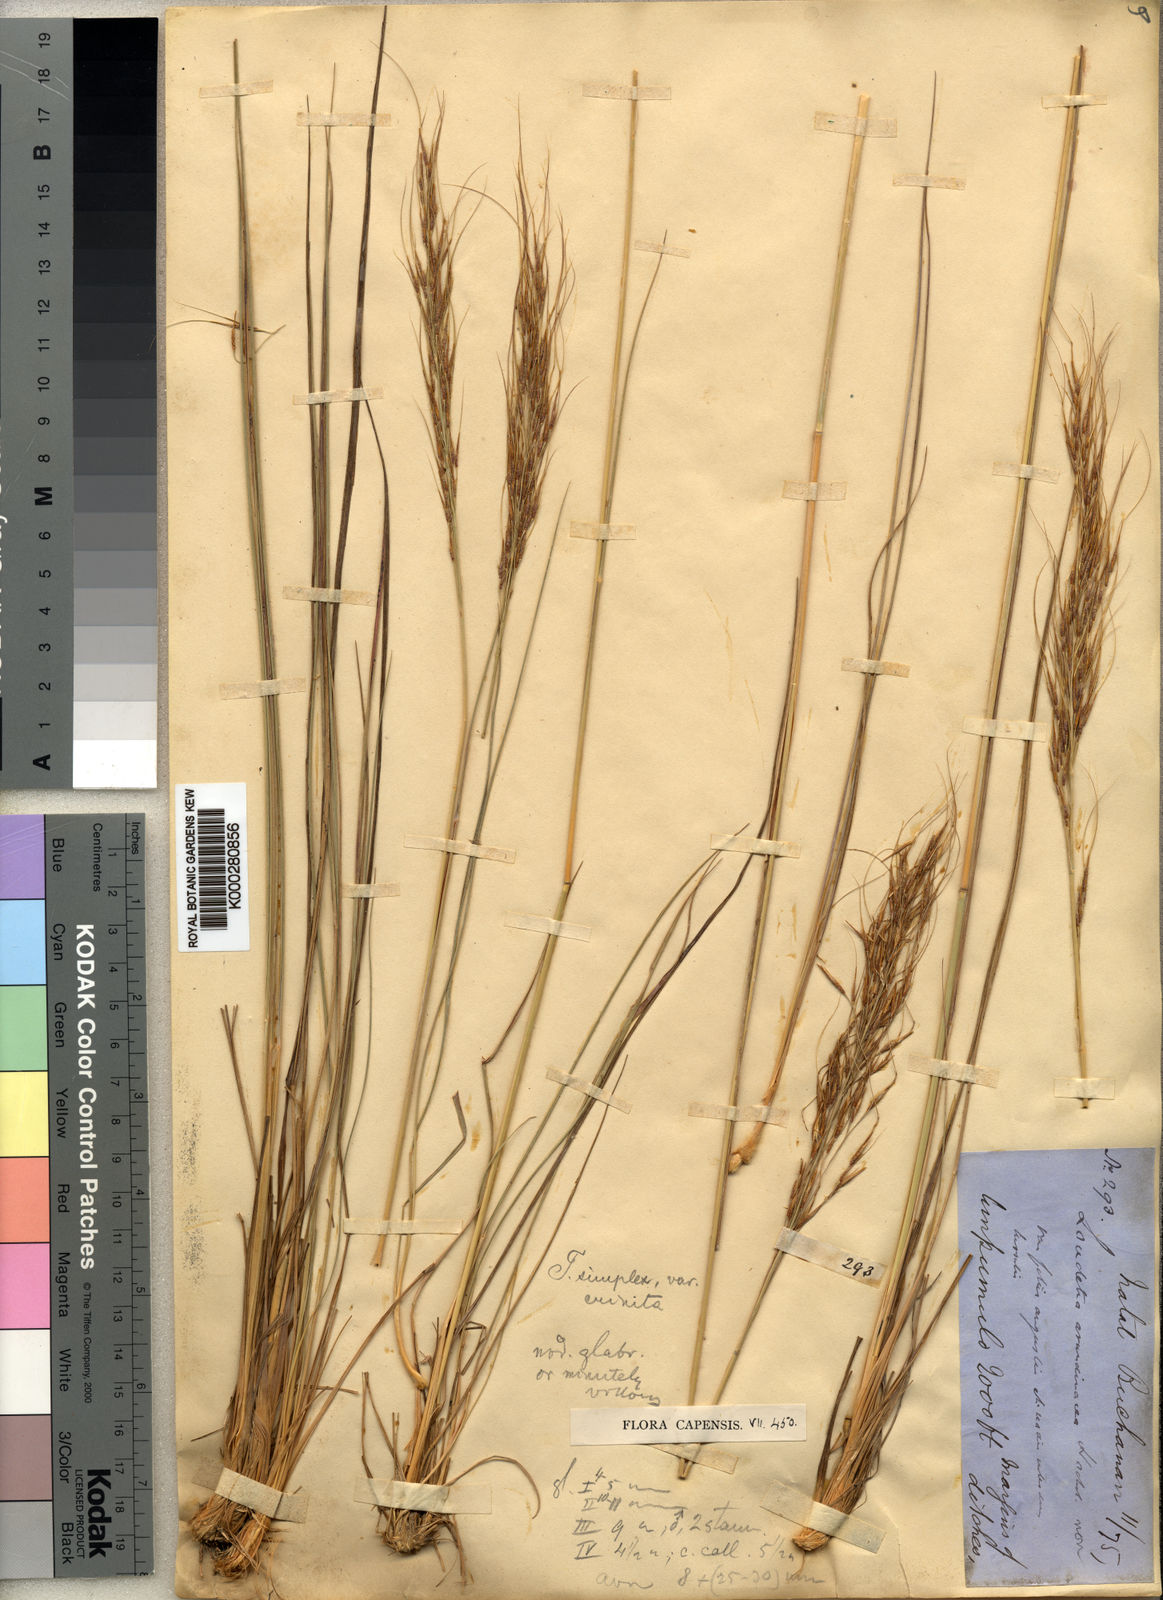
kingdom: Plantae
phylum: Tracheophyta
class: Liliopsida
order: Poales
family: Poaceae
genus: Loudetia
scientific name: Loudetia simplex
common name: Common russet grass
